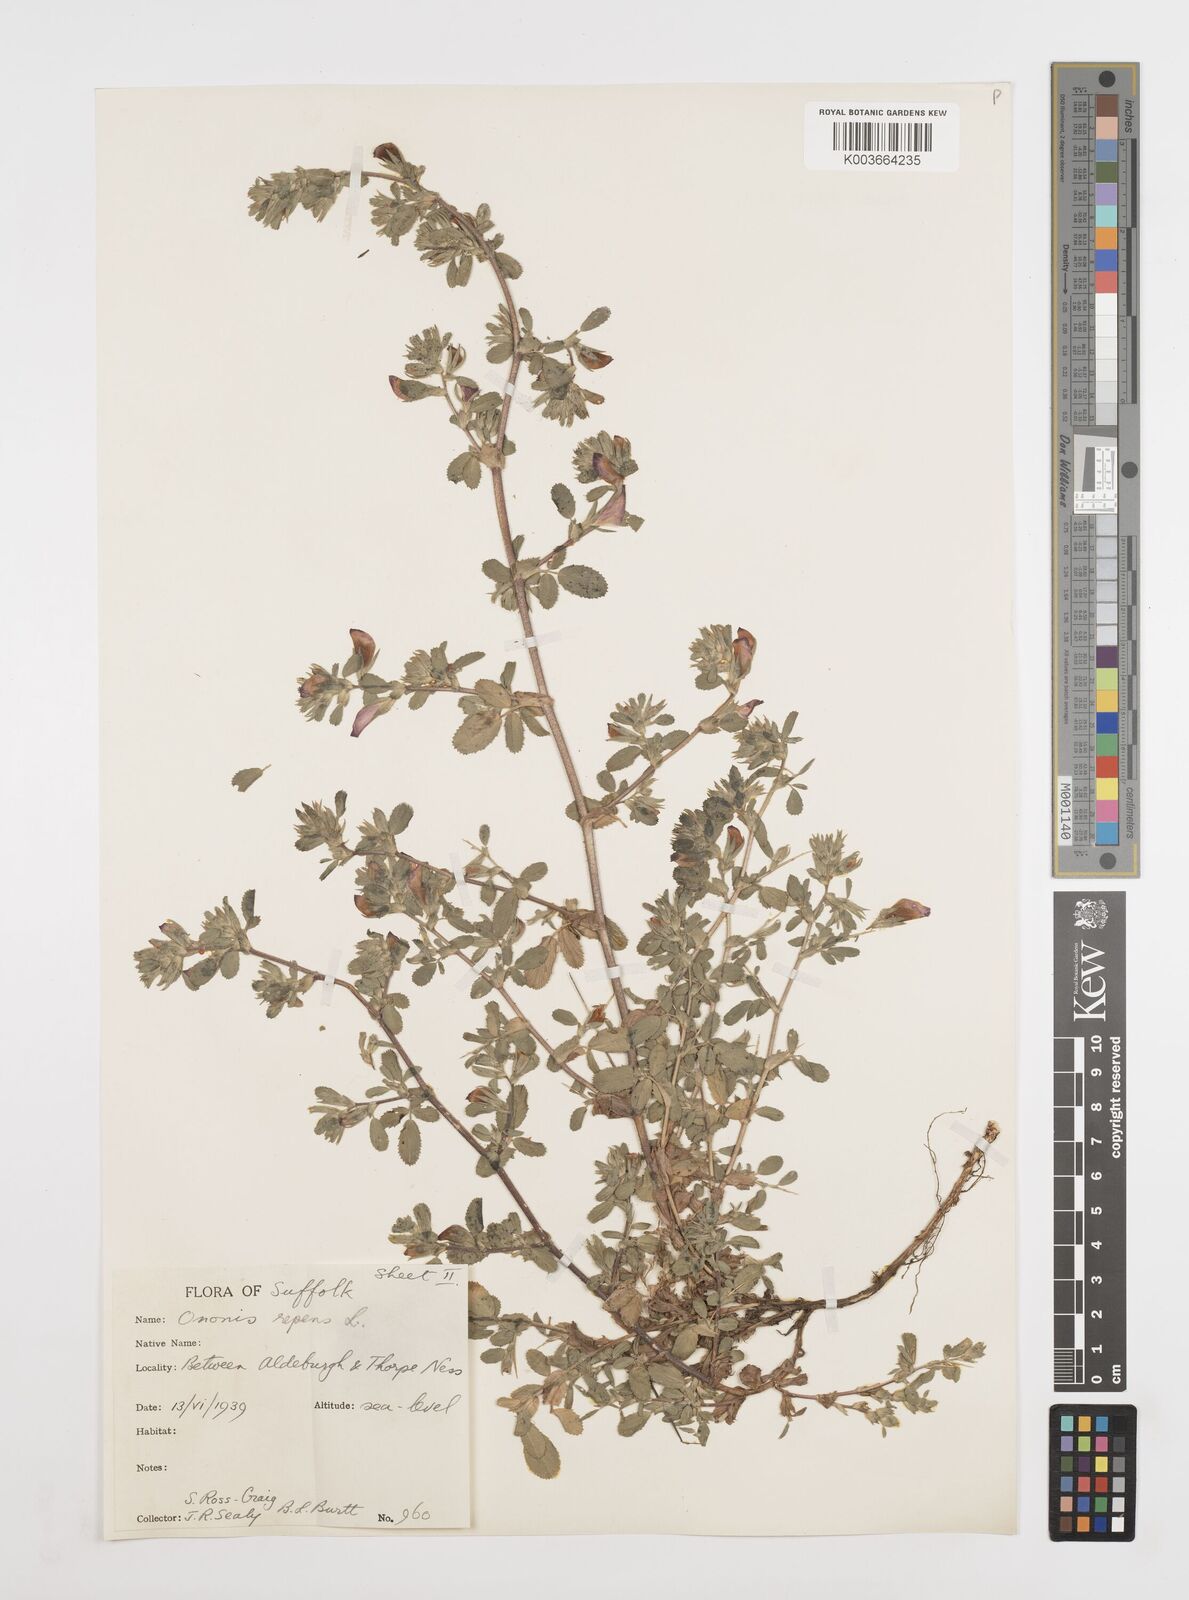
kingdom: Plantae
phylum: Tracheophyta
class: Magnoliopsida
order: Fabales
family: Fabaceae
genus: Ononis
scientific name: Ononis spinosa
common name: Spiny restharrow
